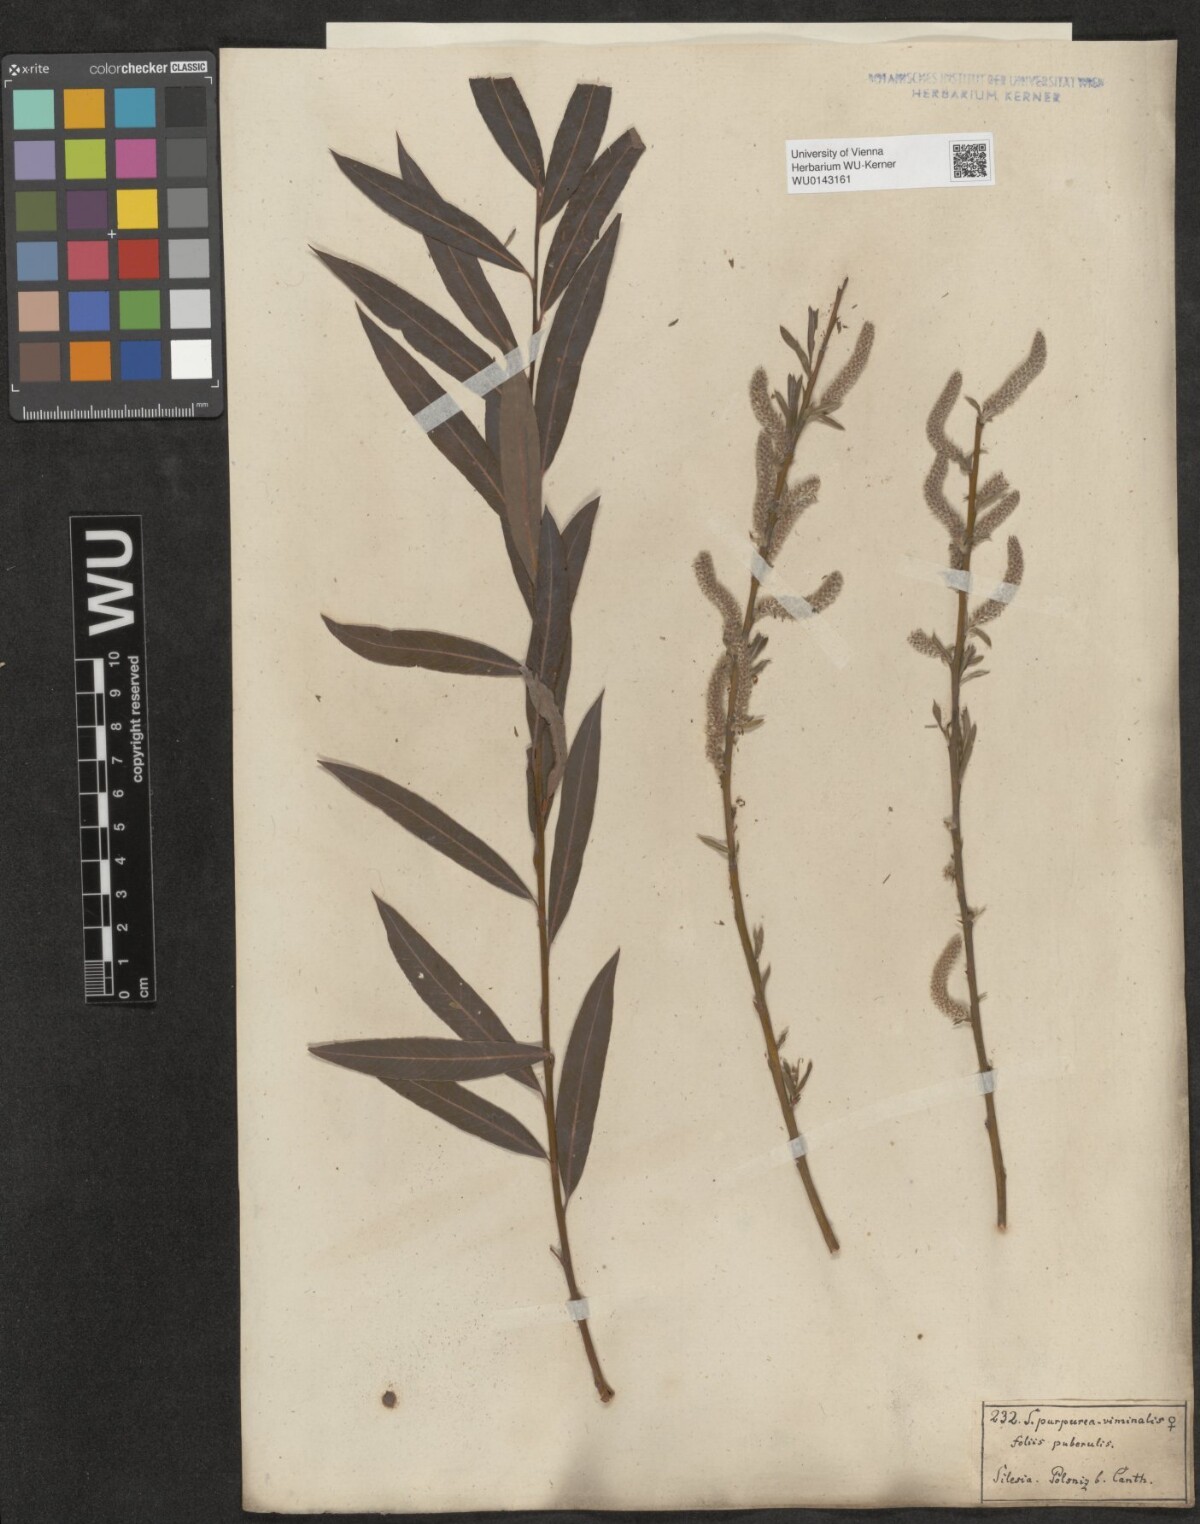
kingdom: Plantae
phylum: Tracheophyta
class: Magnoliopsida
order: Malpighiales
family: Salicaceae
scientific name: Salicaceae
